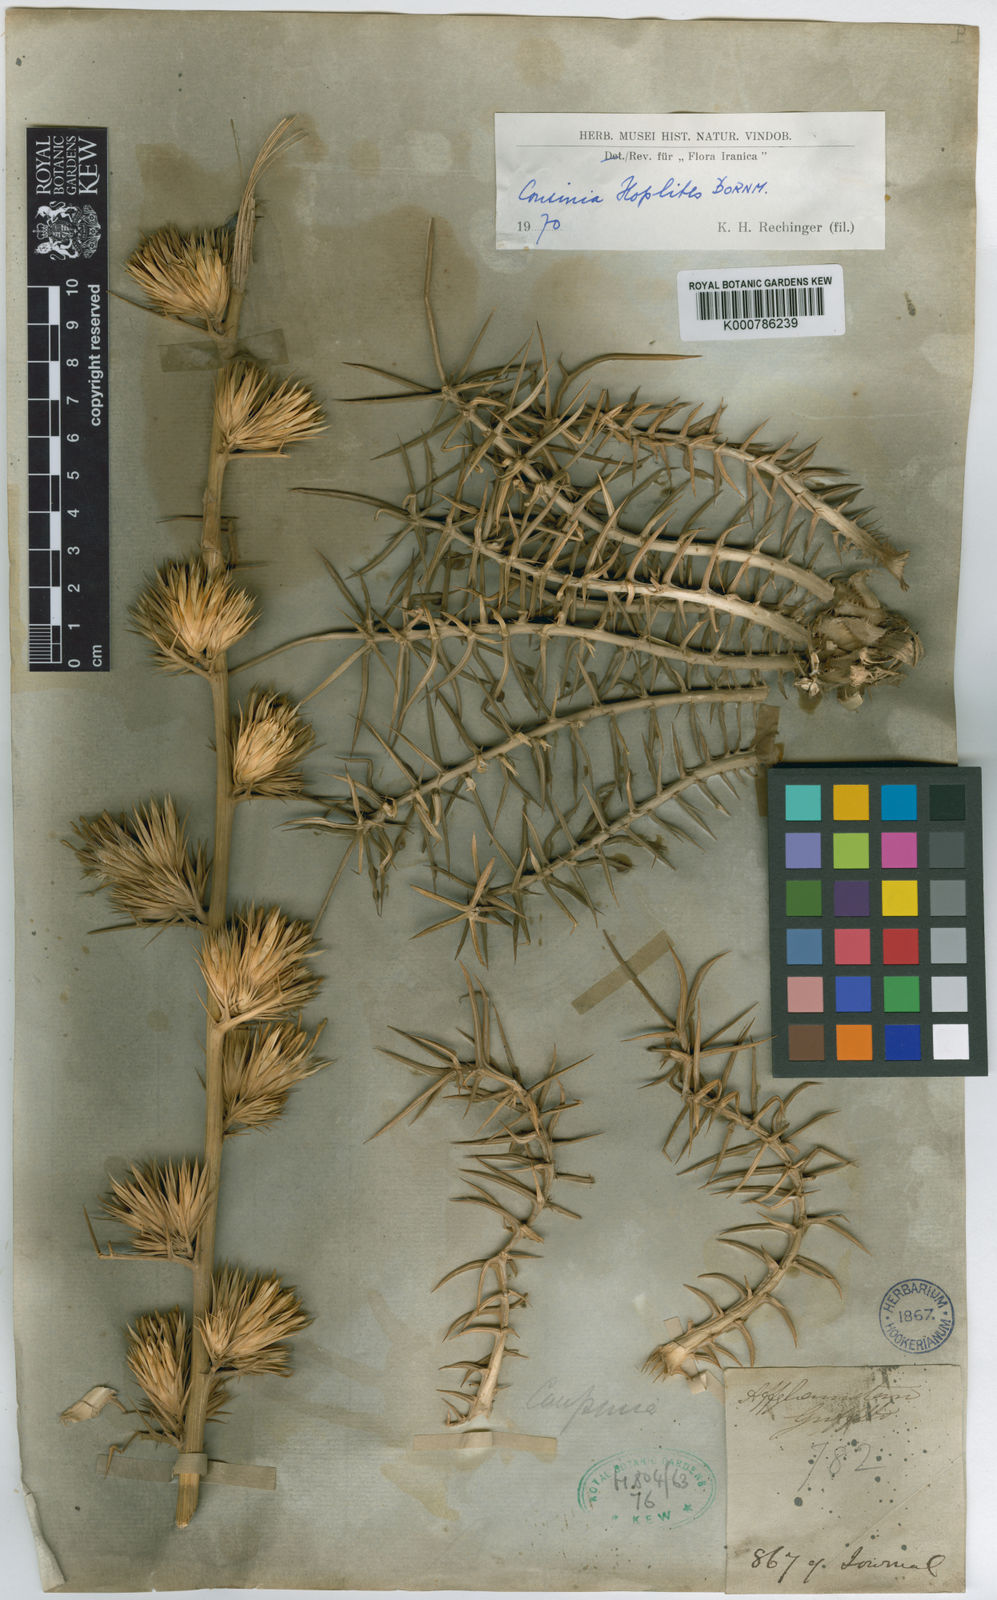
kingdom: Plantae
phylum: Tracheophyta
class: Magnoliopsida
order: Asterales
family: Asteraceae
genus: Cousinia
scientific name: Cousinia hoplites
